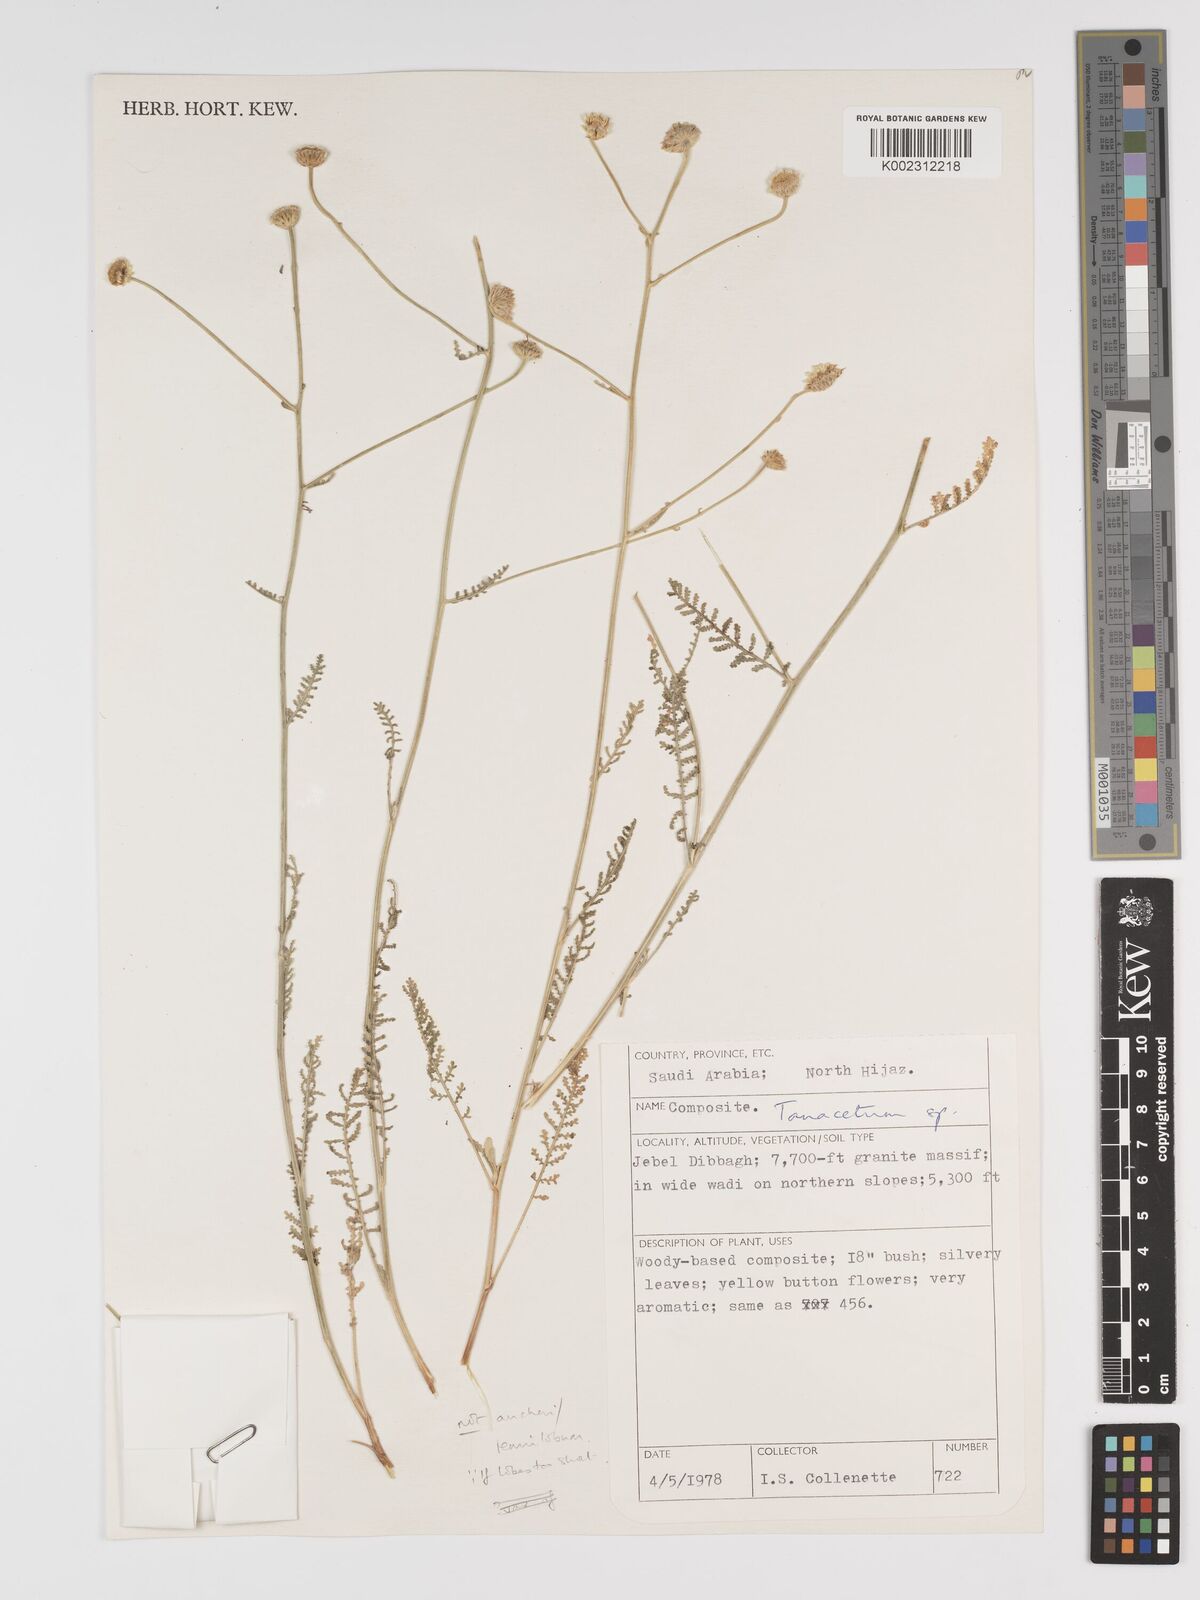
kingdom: Plantae
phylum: Tracheophyta
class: Magnoliopsida
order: Asterales
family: Asteraceae
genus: Tanacetum
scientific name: Tanacetum
